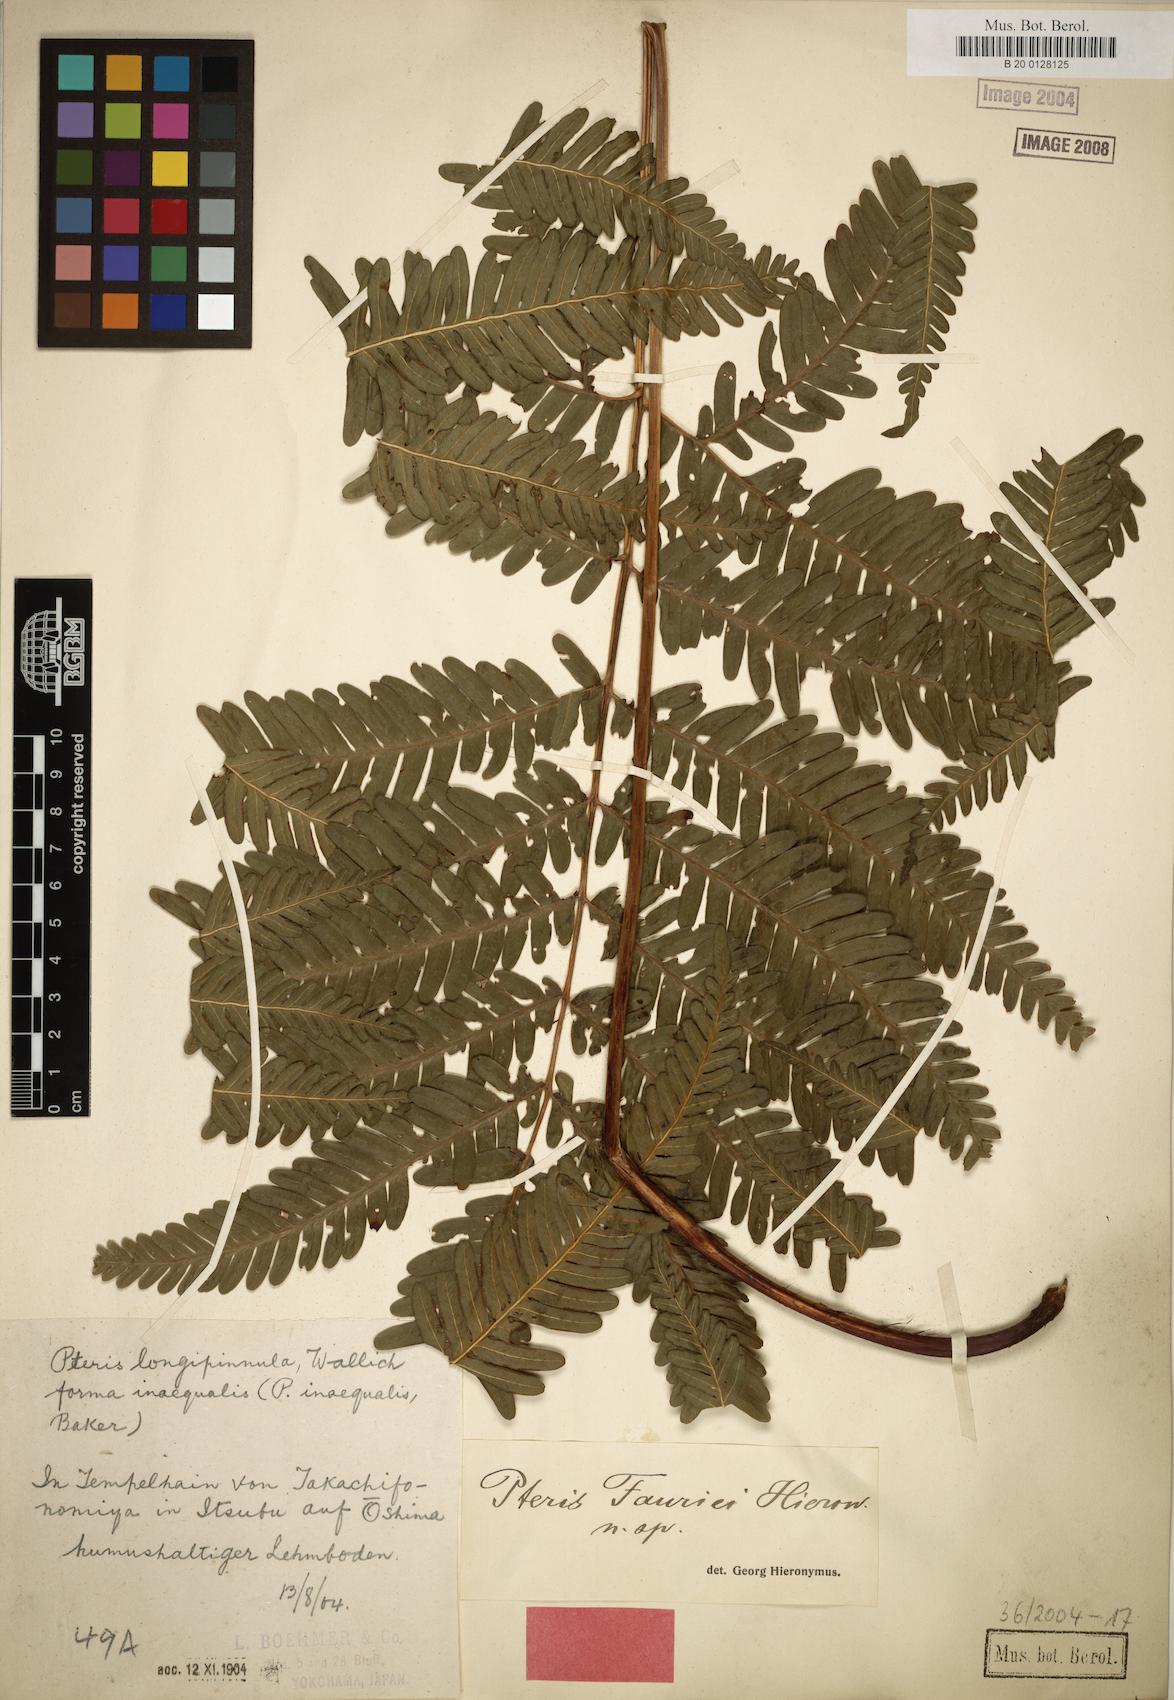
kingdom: Plantae
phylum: Tracheophyta
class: Polypodiopsida
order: Polypodiales
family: Pteridaceae
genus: Pteris
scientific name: Pteris fauriei
